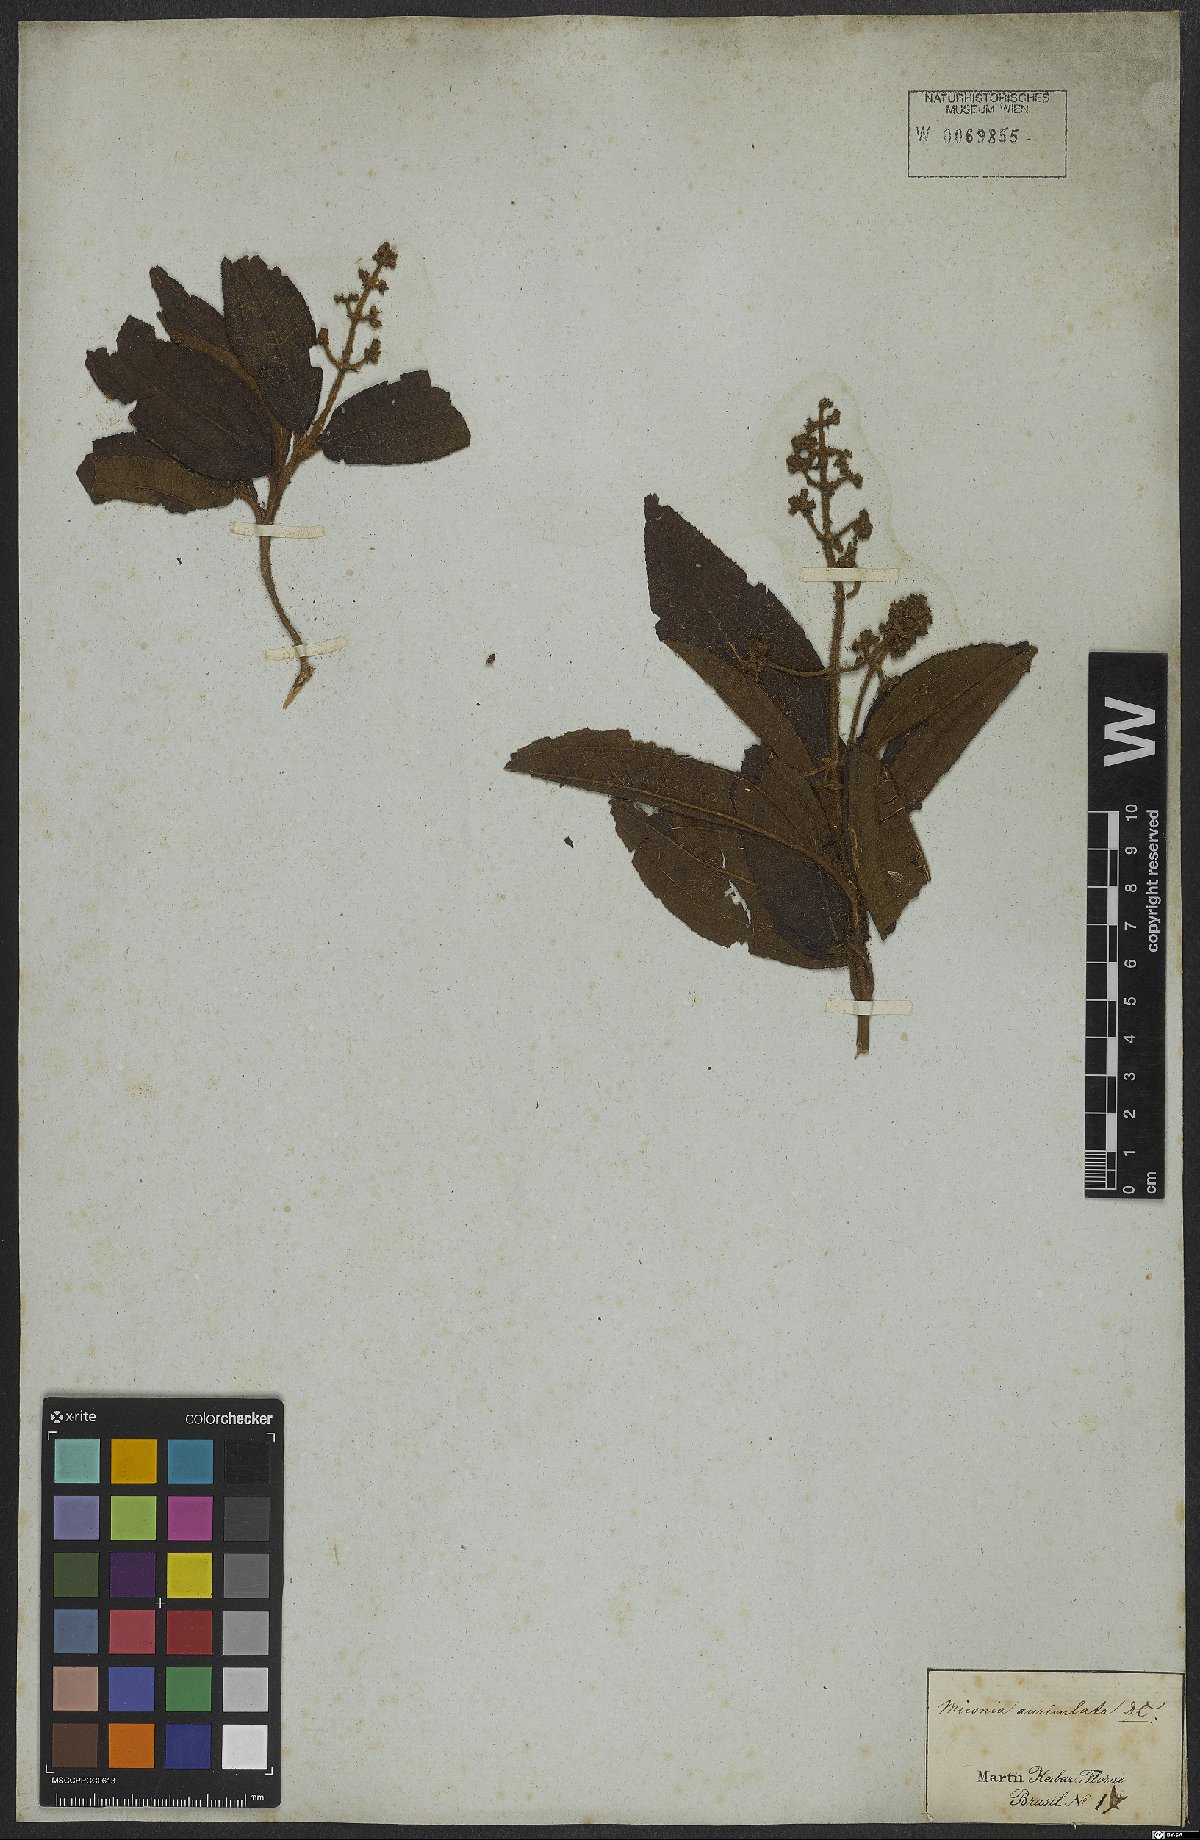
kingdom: Plantae
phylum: Tracheophyta
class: Magnoliopsida
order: Myrtales
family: Melastomataceae
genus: Miconia
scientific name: Miconia ibaguensis
